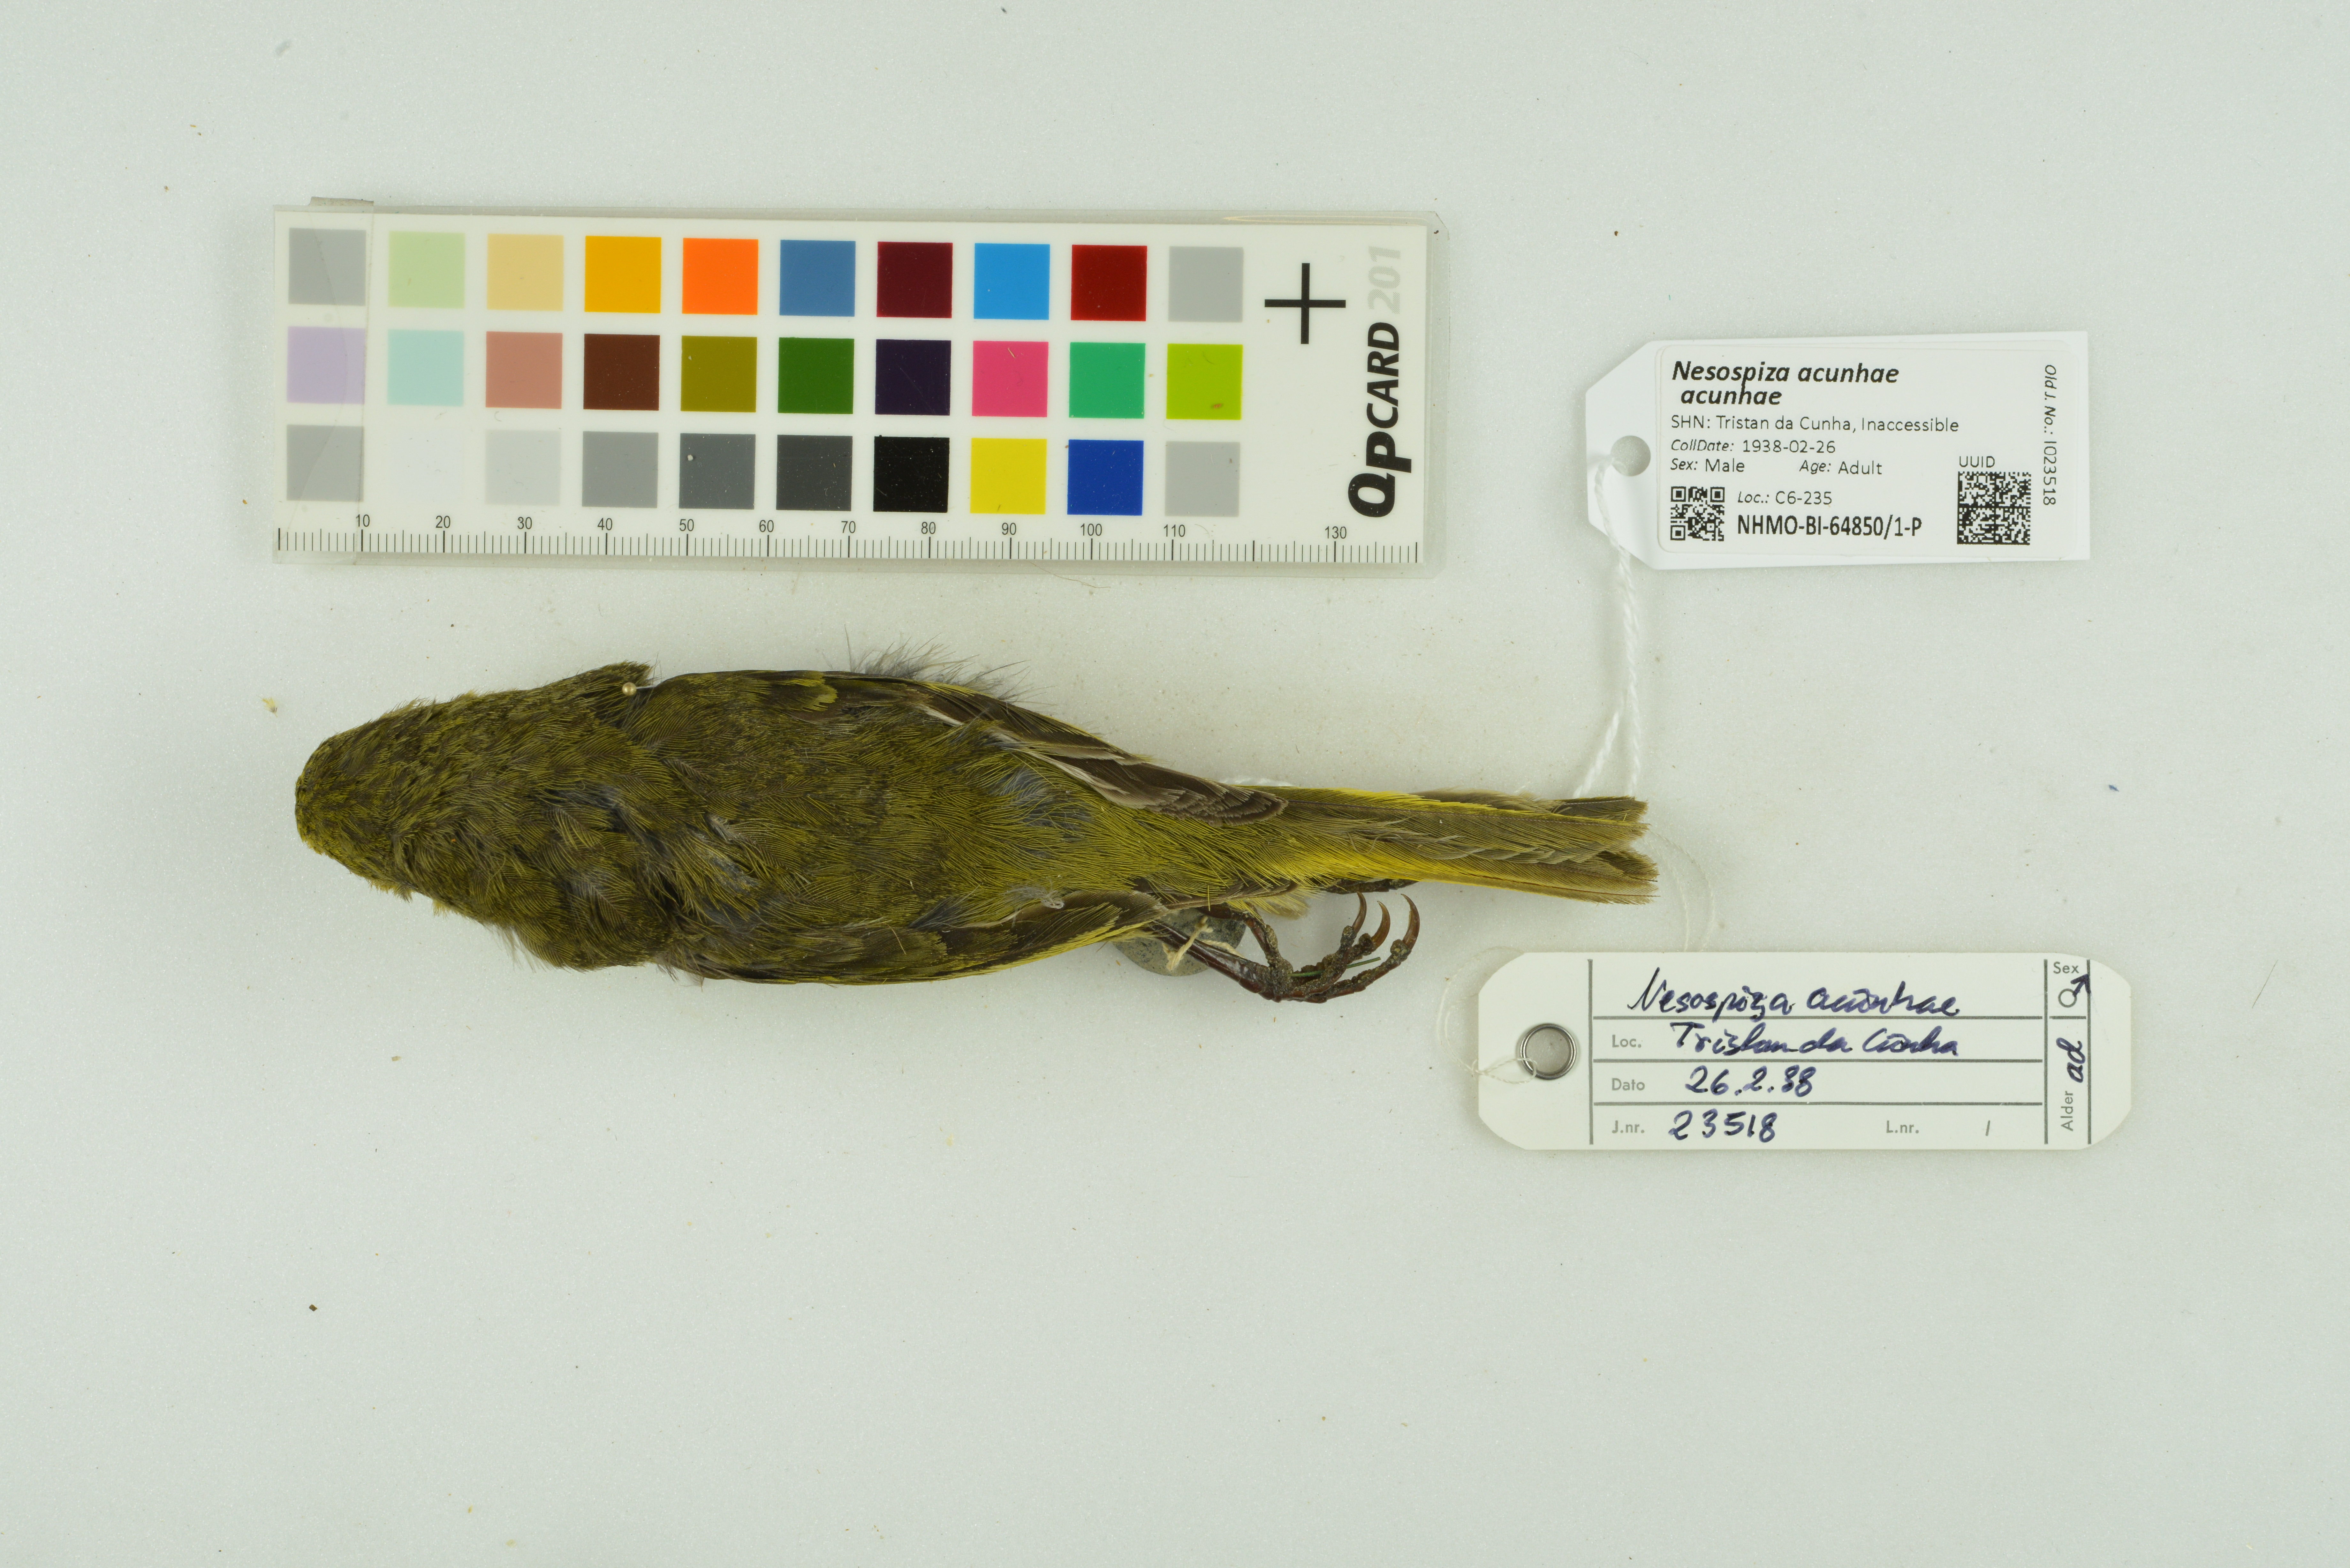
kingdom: Animalia
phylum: Chordata
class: Aves
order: Passeriformes
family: Thraupidae
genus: Nesospiza
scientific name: Nesospiza acunhae
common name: Inaccessible island finch
